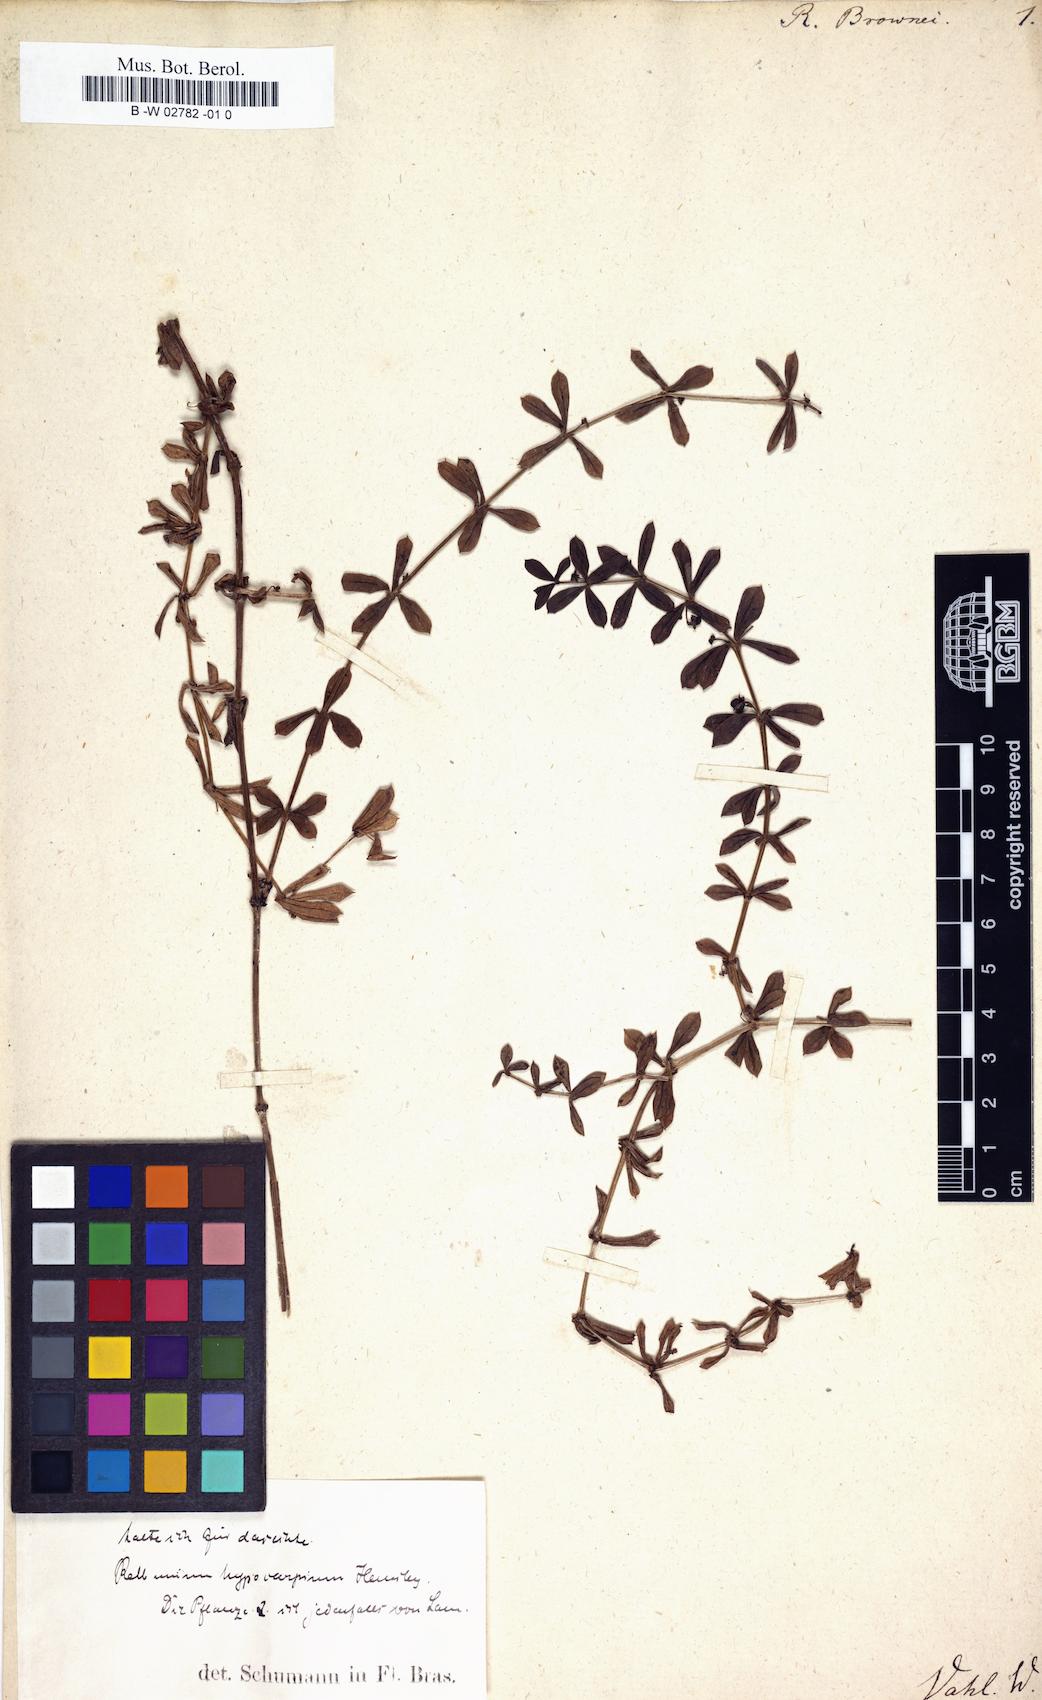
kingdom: Plantae
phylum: Tracheophyta
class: Magnoliopsida
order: Gentianales
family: Rubiaceae
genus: Galium
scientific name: Galium
